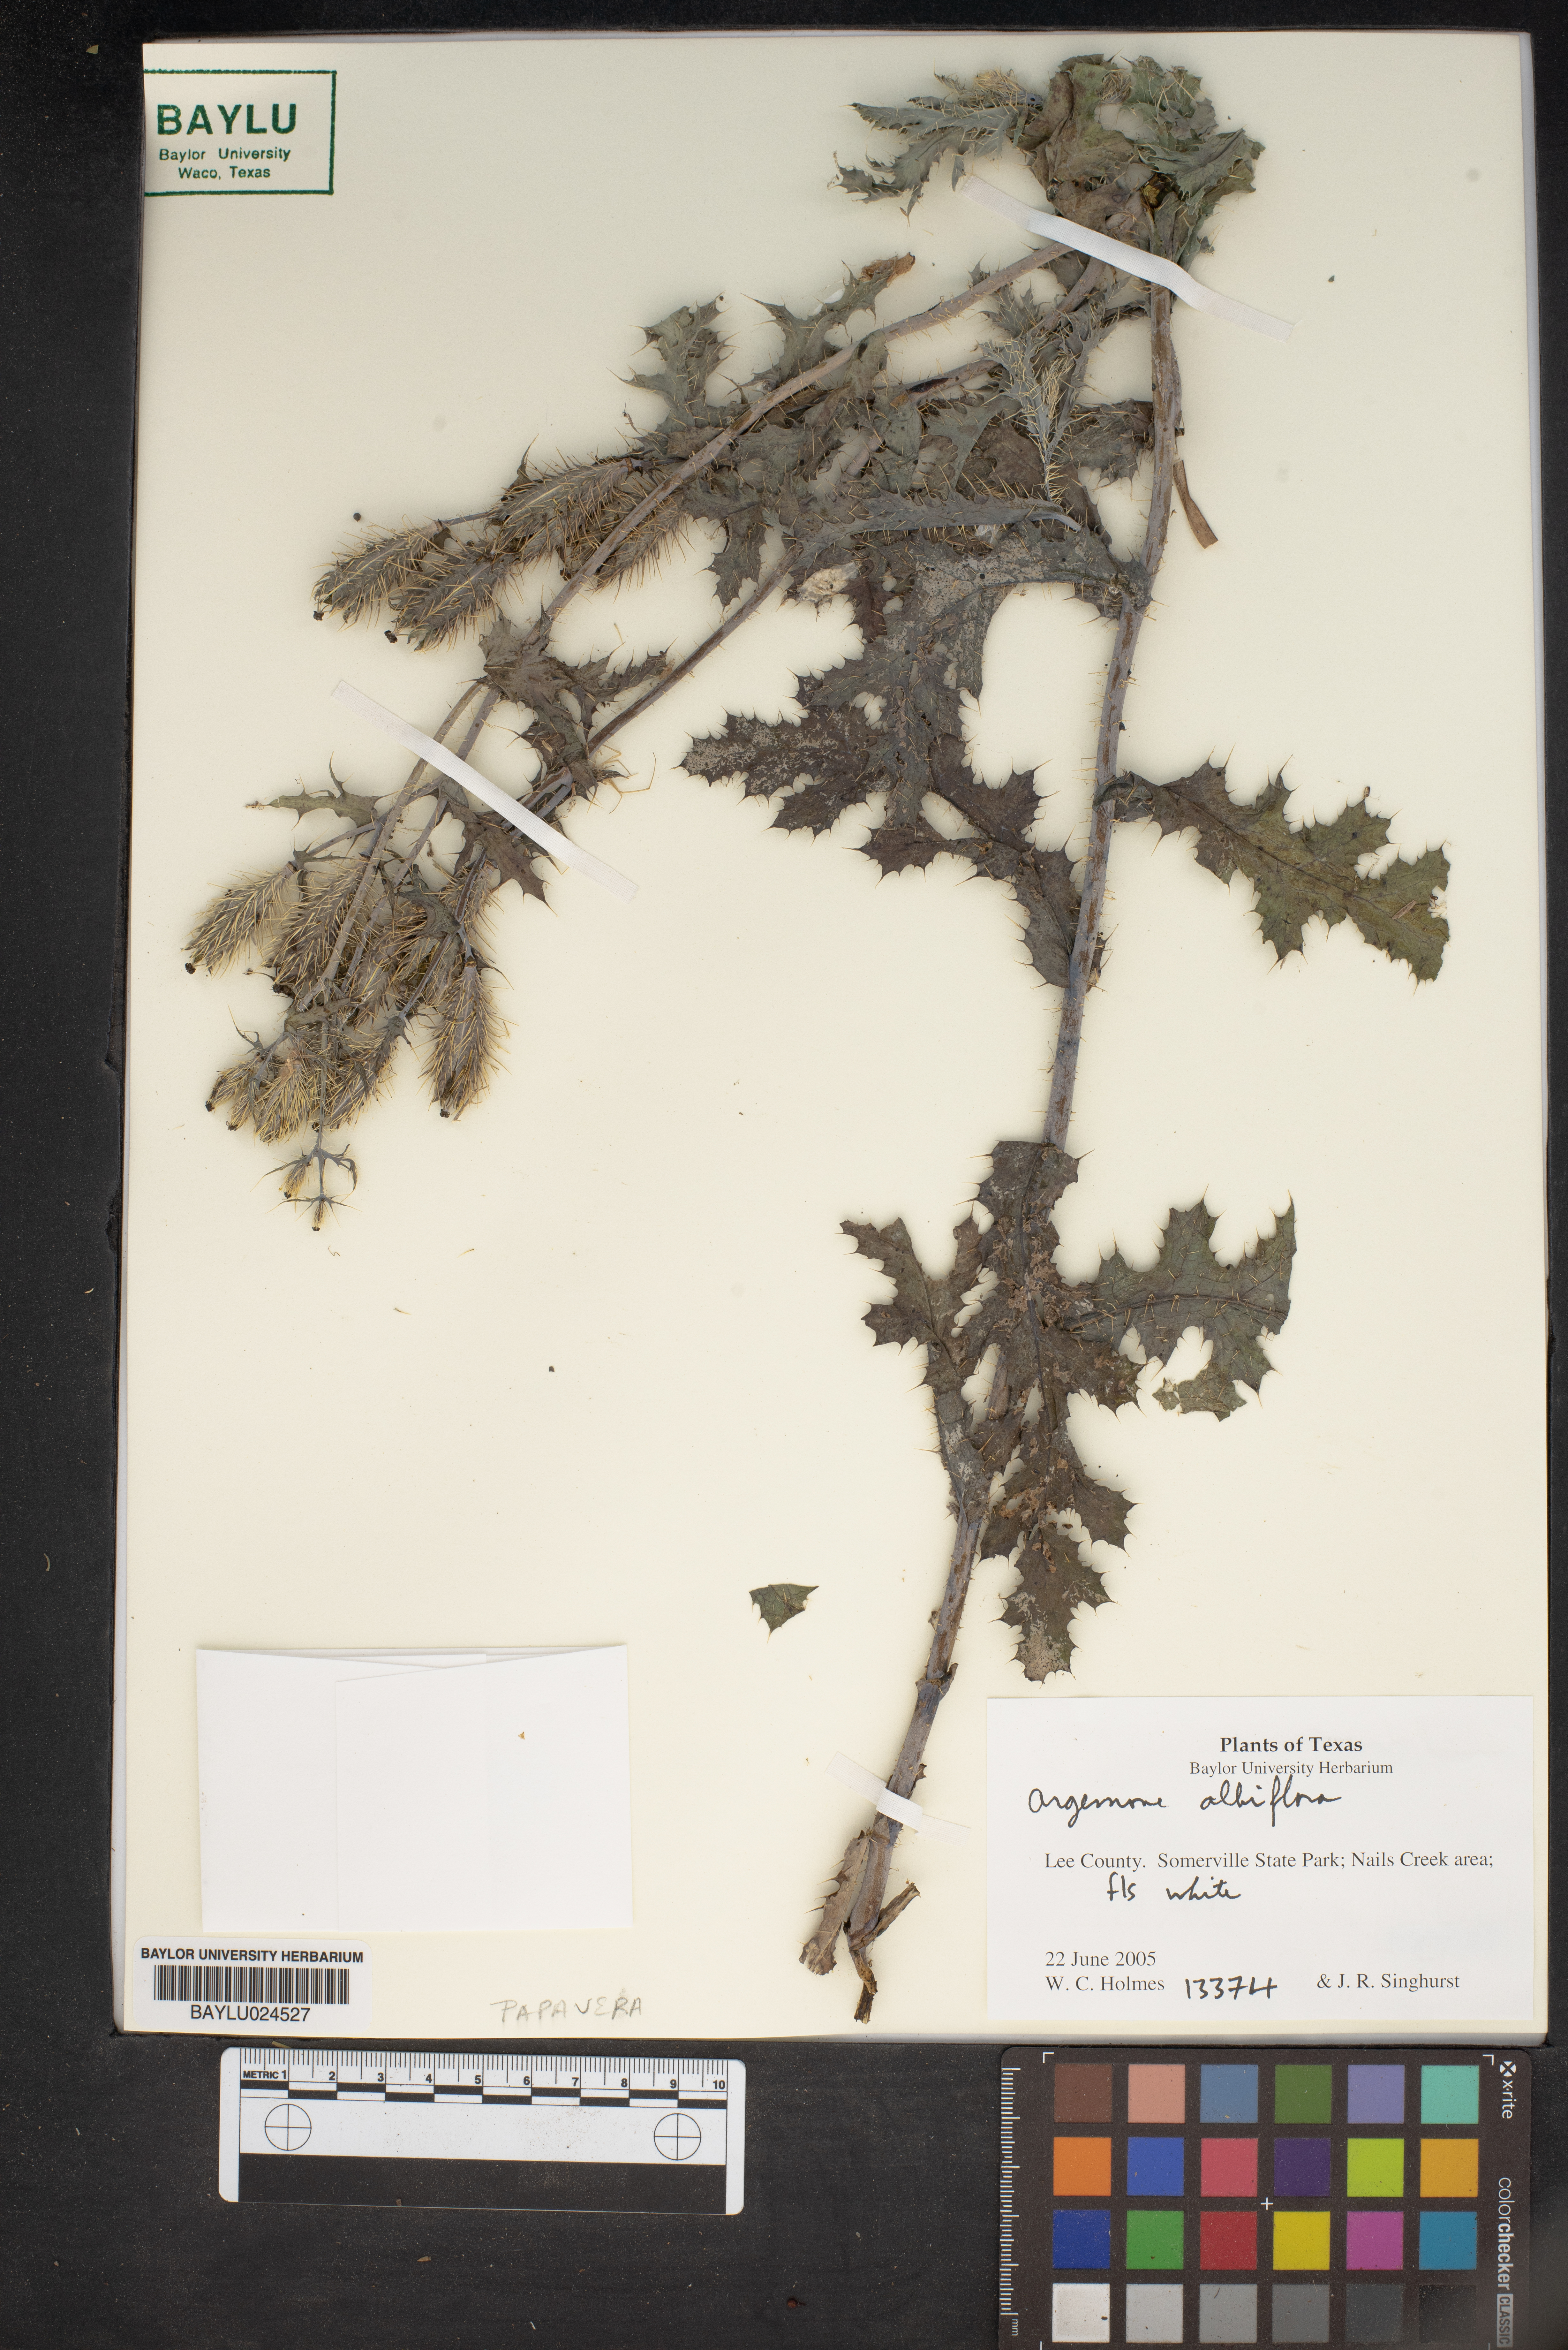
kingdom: Plantae
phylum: Tracheophyta
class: Magnoliopsida
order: Ranunculales
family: Papaveraceae
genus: Argemone
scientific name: Argemone albiflora
